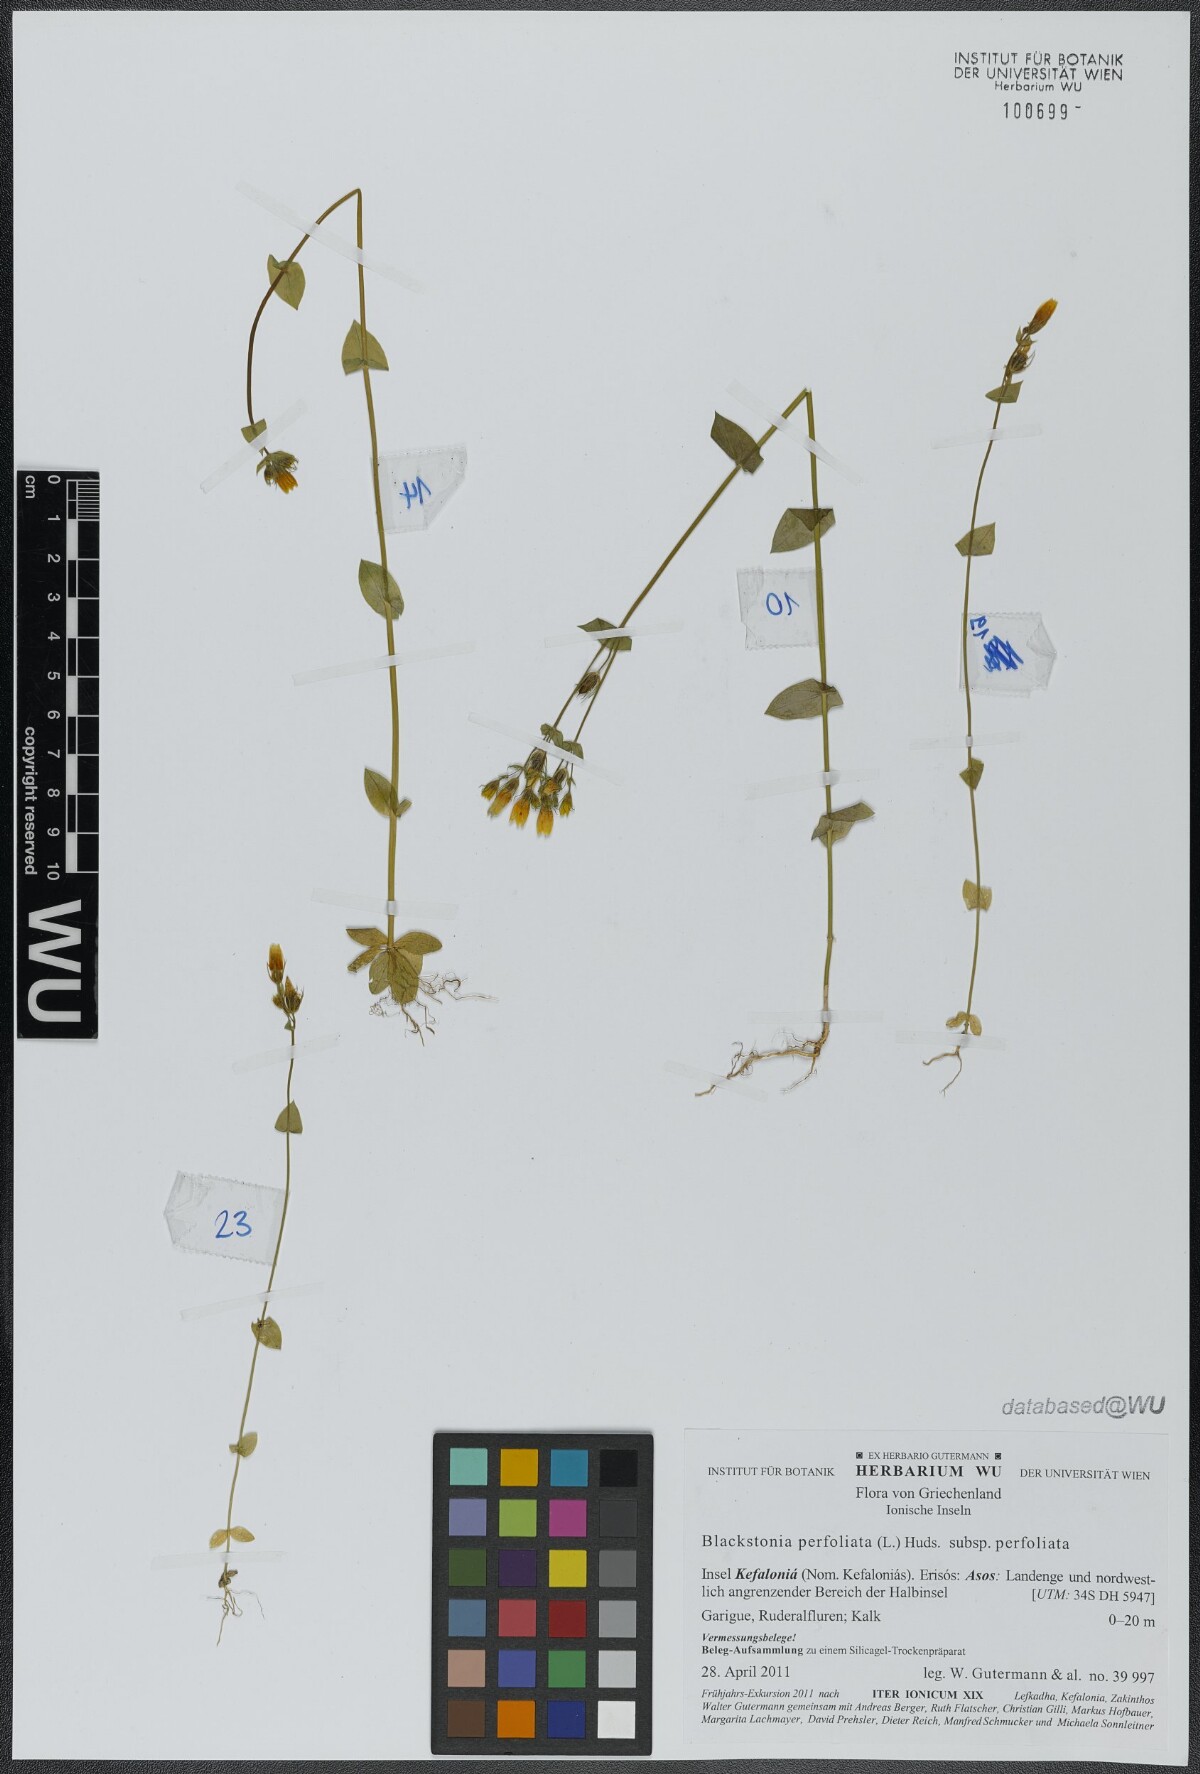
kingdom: Plantae
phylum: Tracheophyta
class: Magnoliopsida
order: Gentianales
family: Gentianaceae
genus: Blackstonia
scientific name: Blackstonia perfoliata
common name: Yellow-wort
